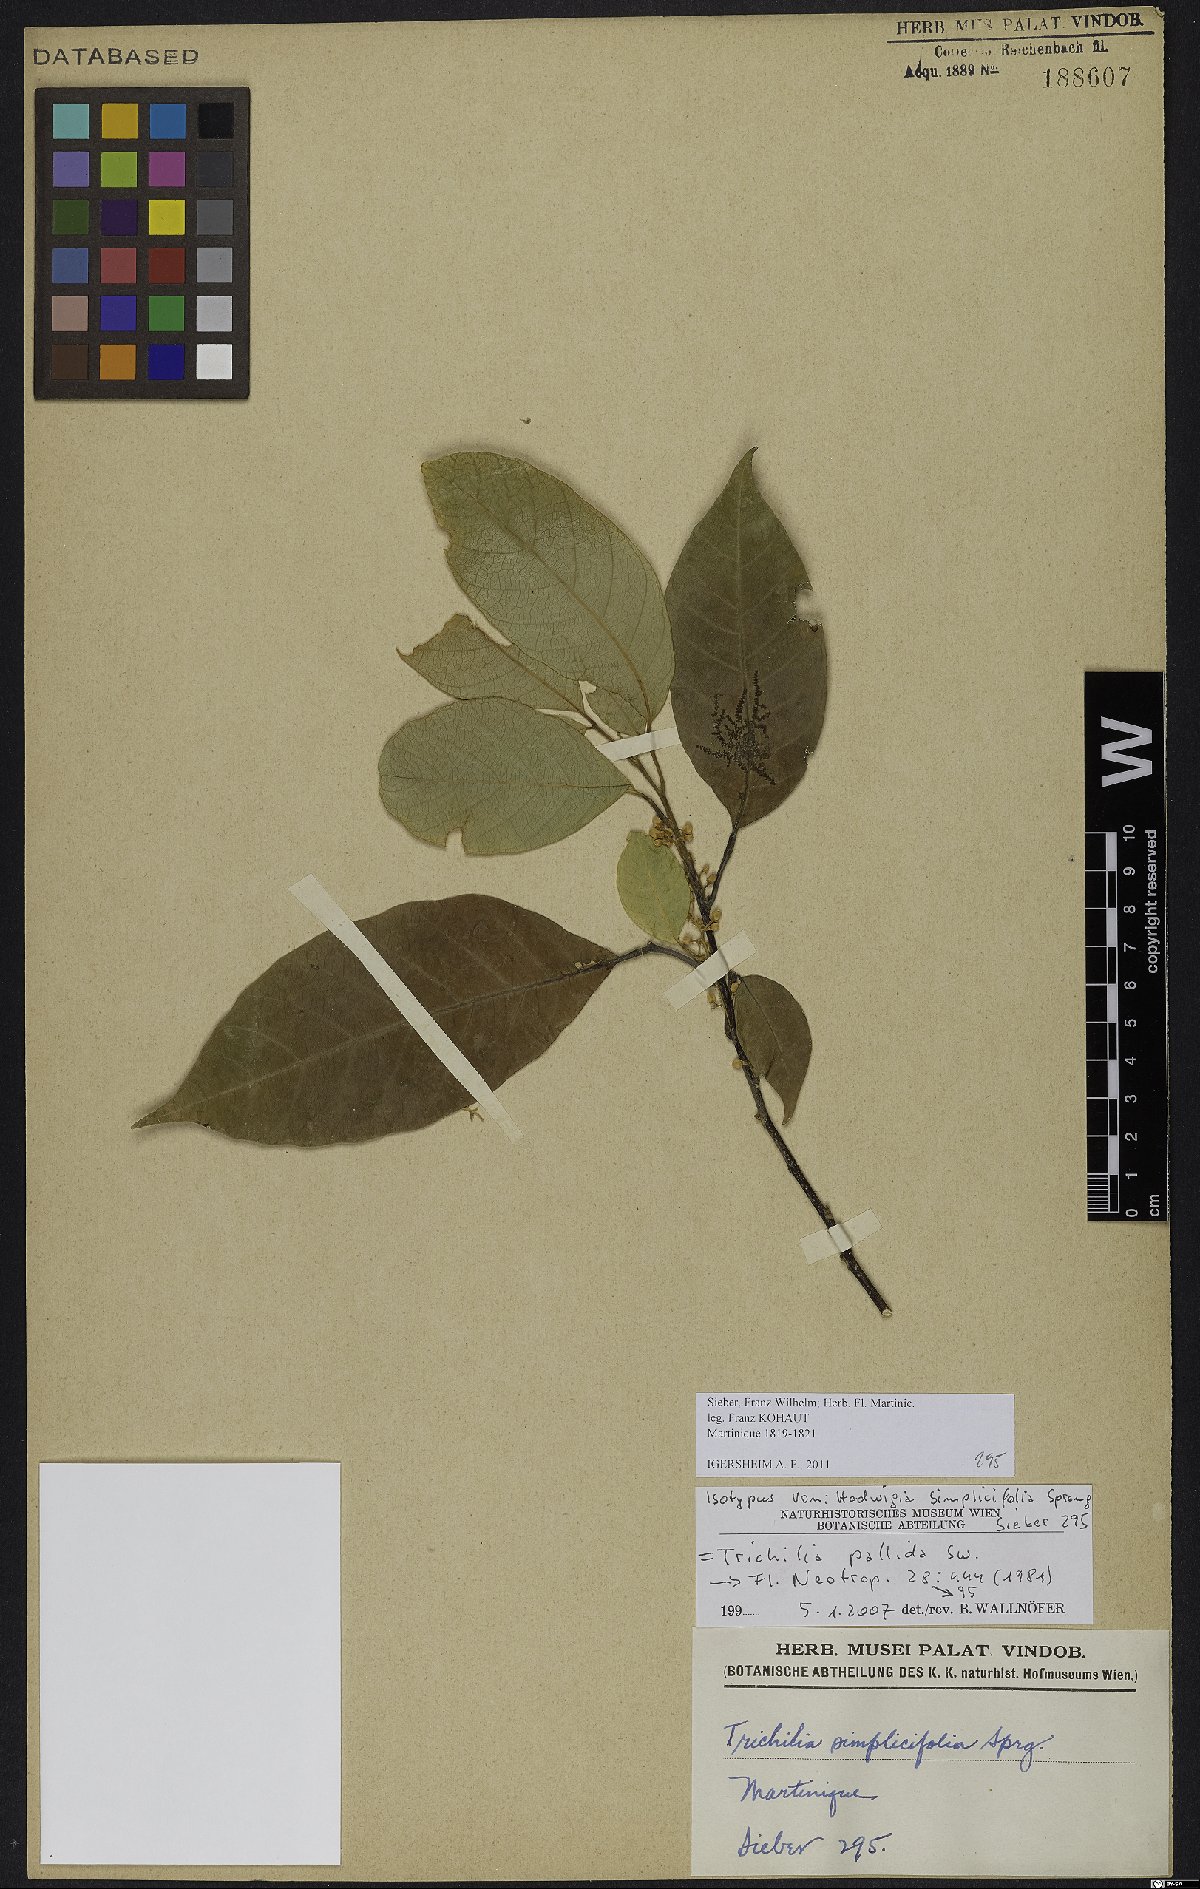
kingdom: Plantae
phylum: Tracheophyta
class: Magnoliopsida
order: Sapindales
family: Meliaceae
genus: Trichilia
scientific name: Trichilia pallida
